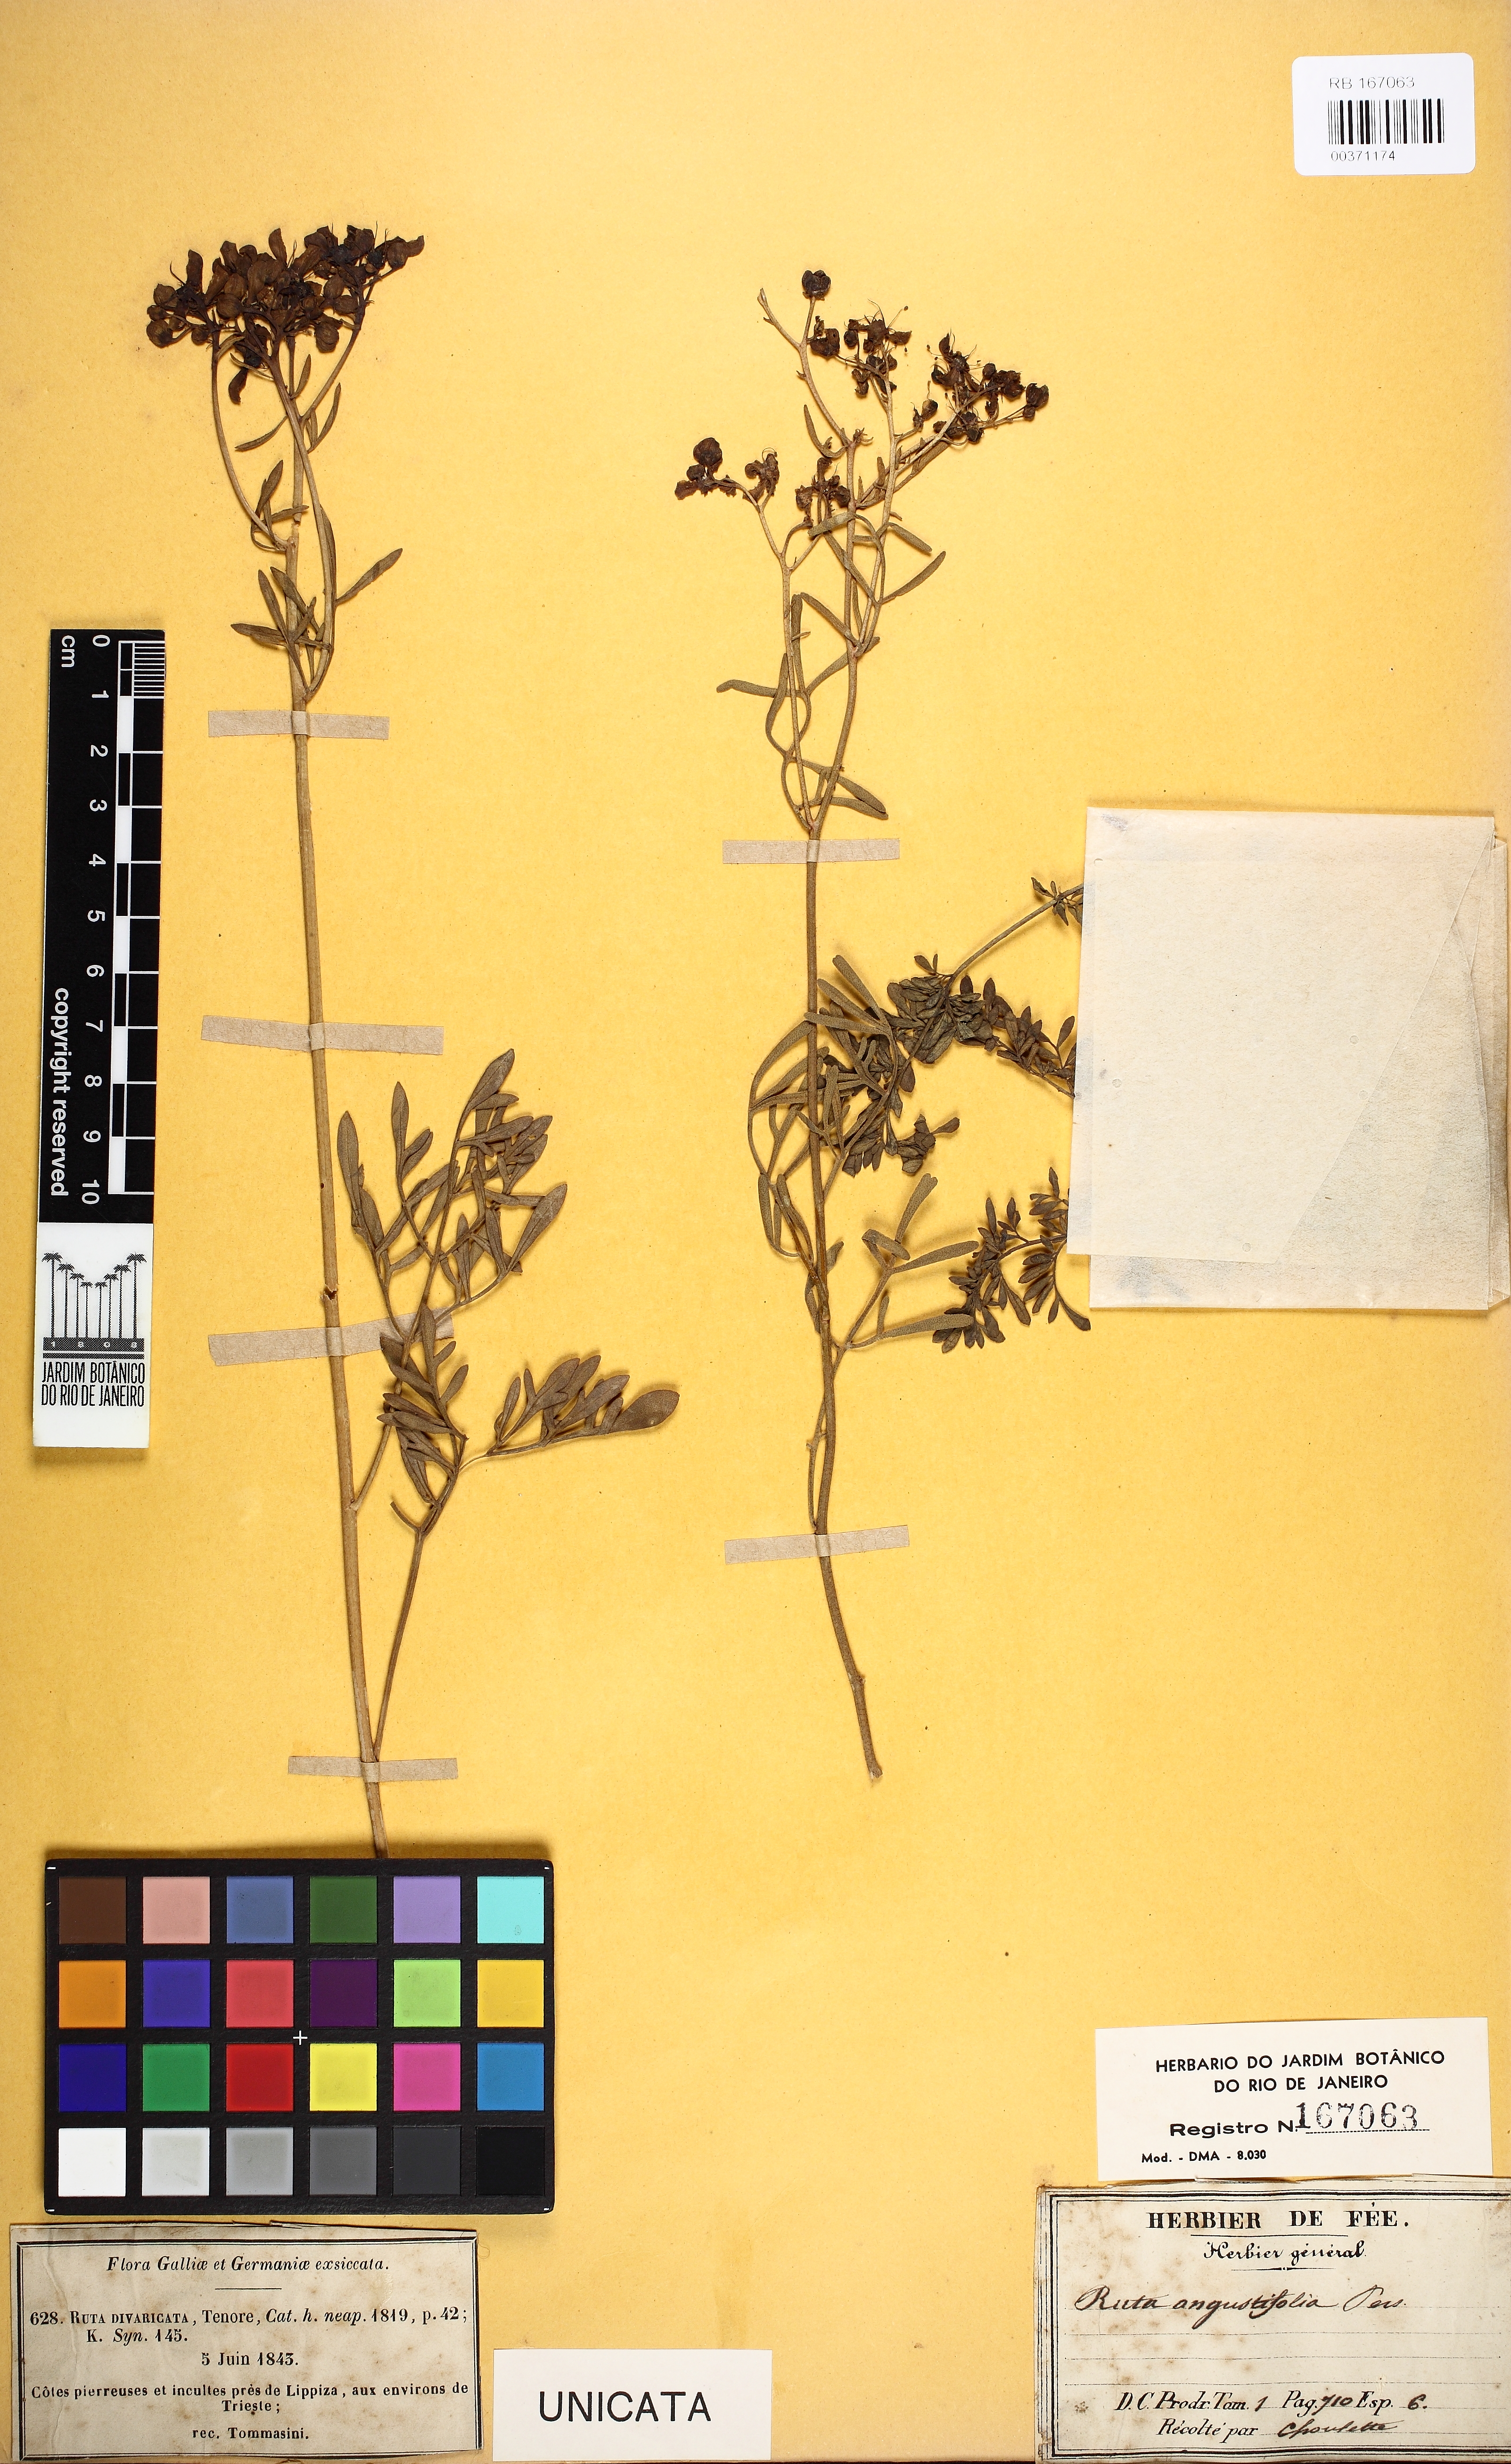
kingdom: Plantae
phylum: Tracheophyta
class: Magnoliopsida
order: Sapindales
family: Rutaceae
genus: Ruta
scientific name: Ruta angustifolia
